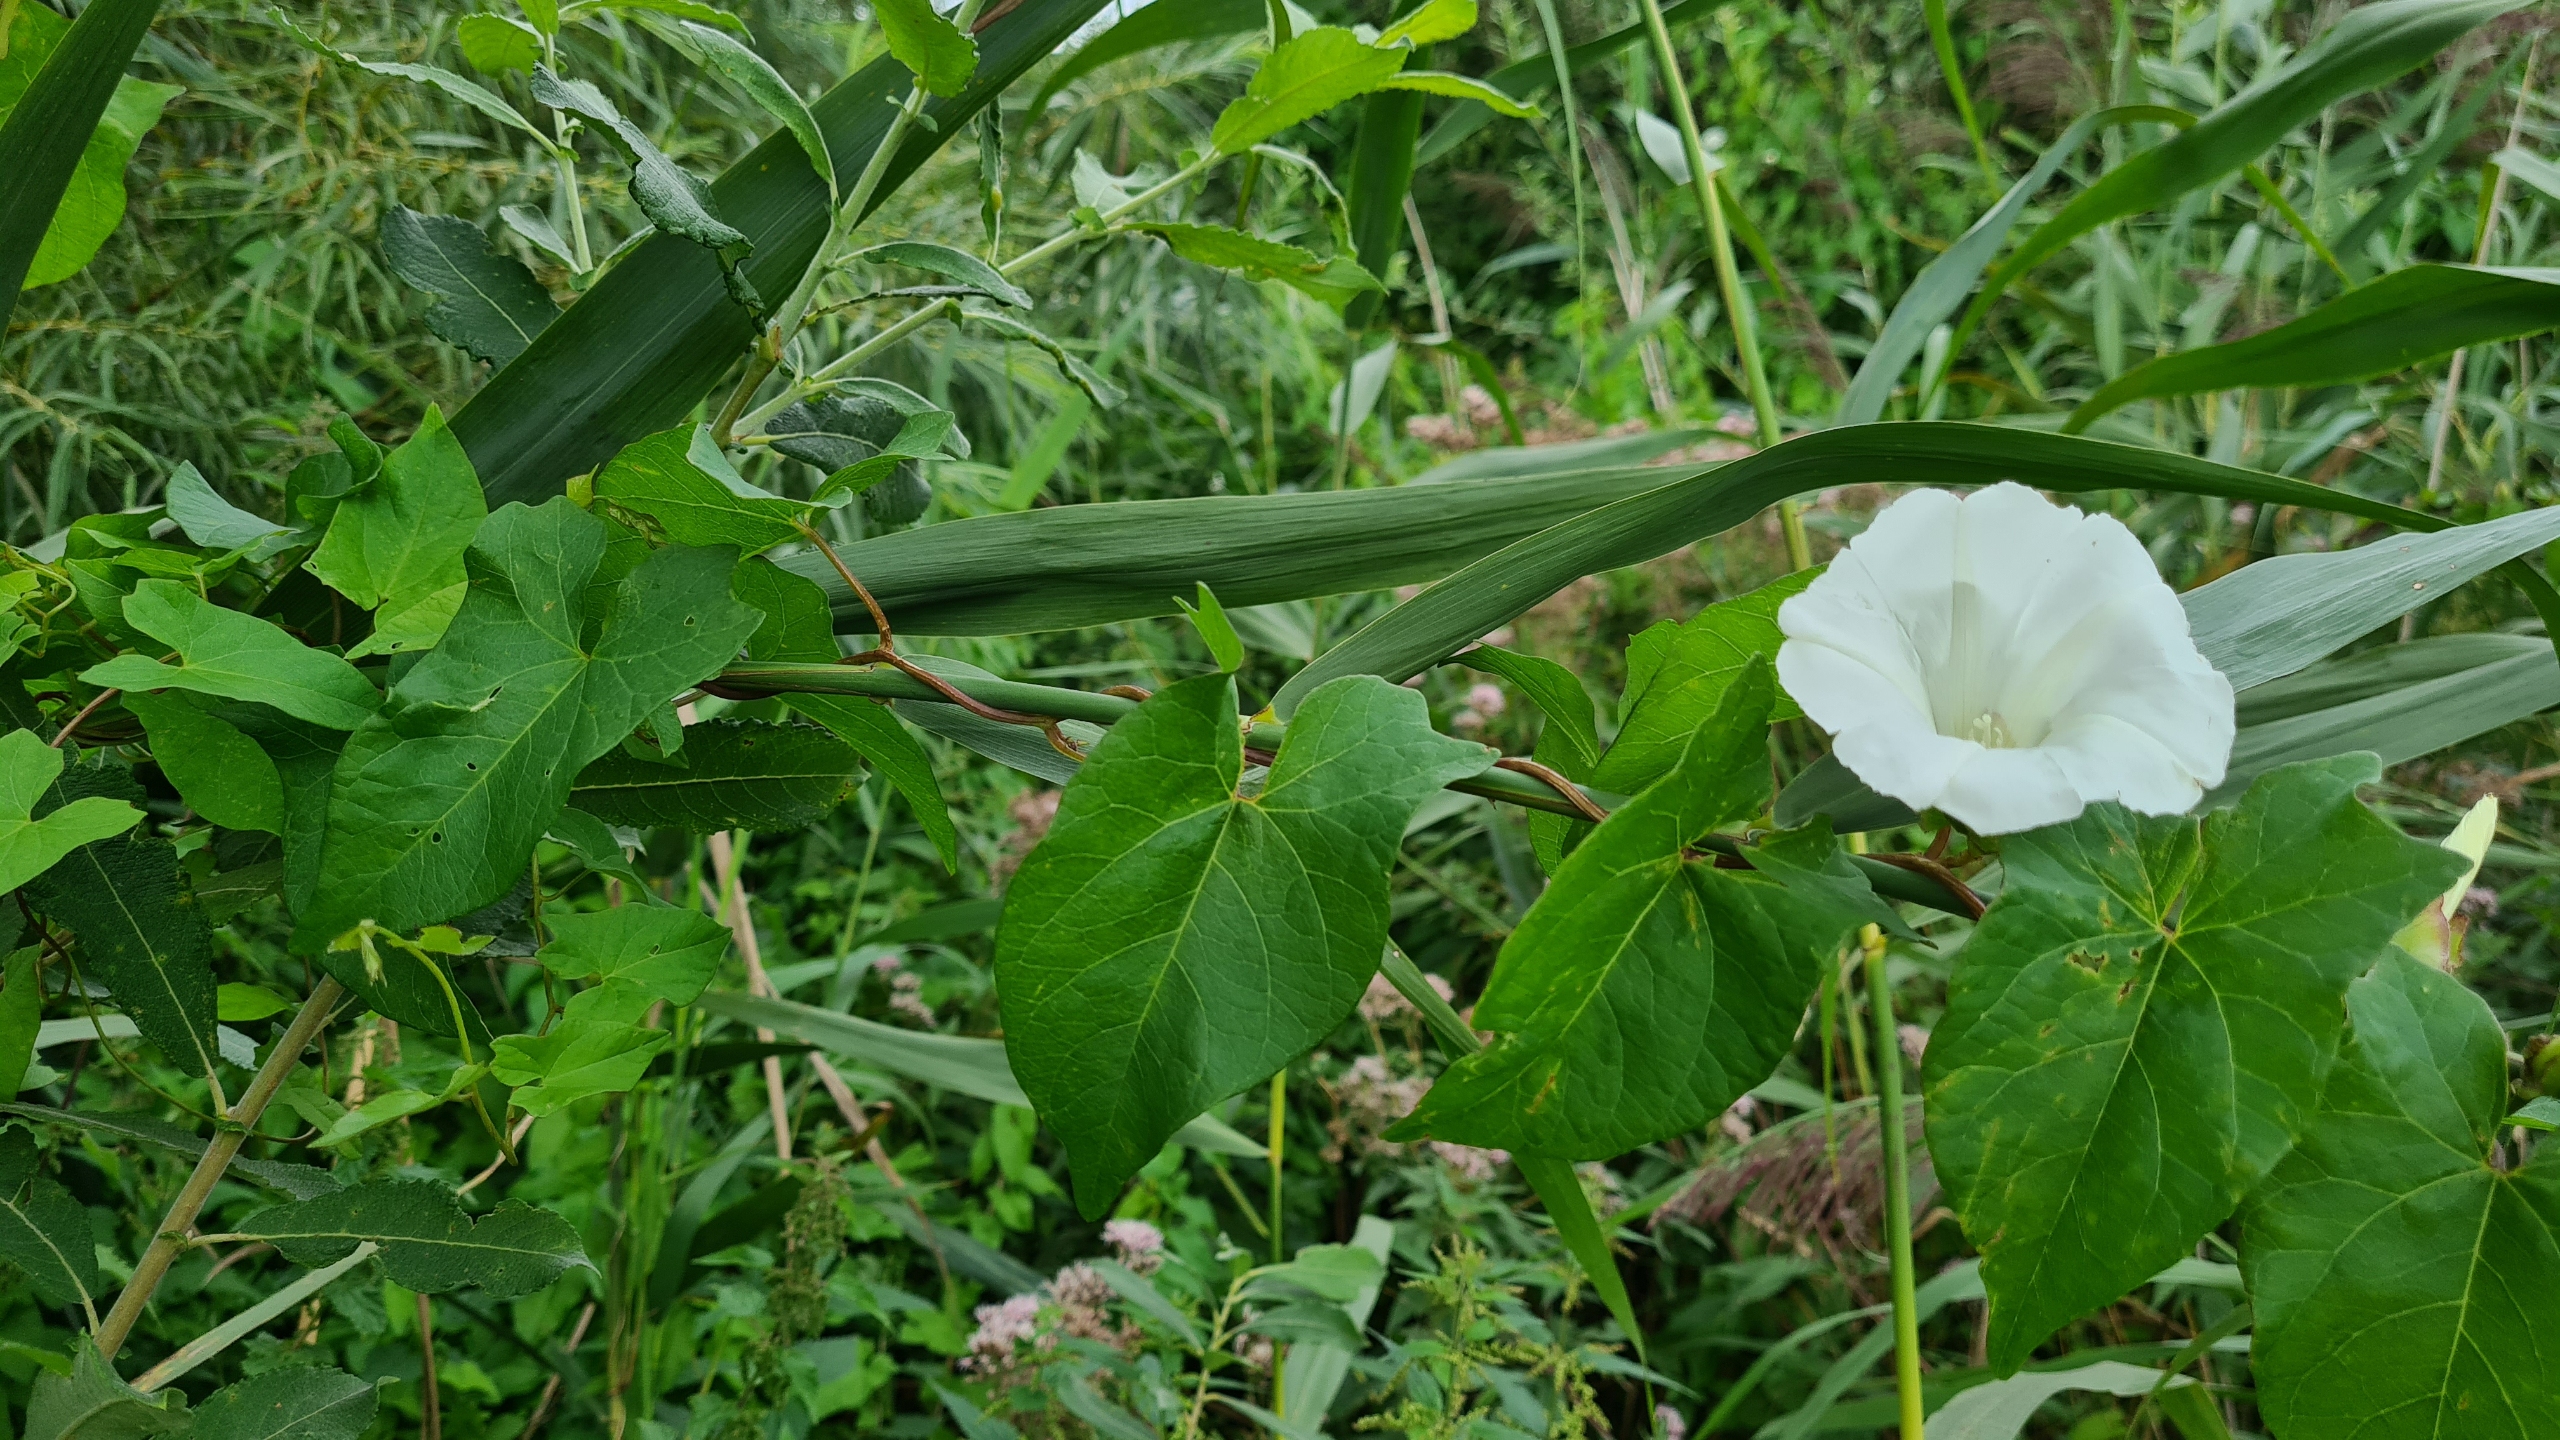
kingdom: Plantae
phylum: Tracheophyta
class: Magnoliopsida
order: Solanales
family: Convolvulaceae
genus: Calystegia
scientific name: Calystegia sepium
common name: Gærde-snerle
